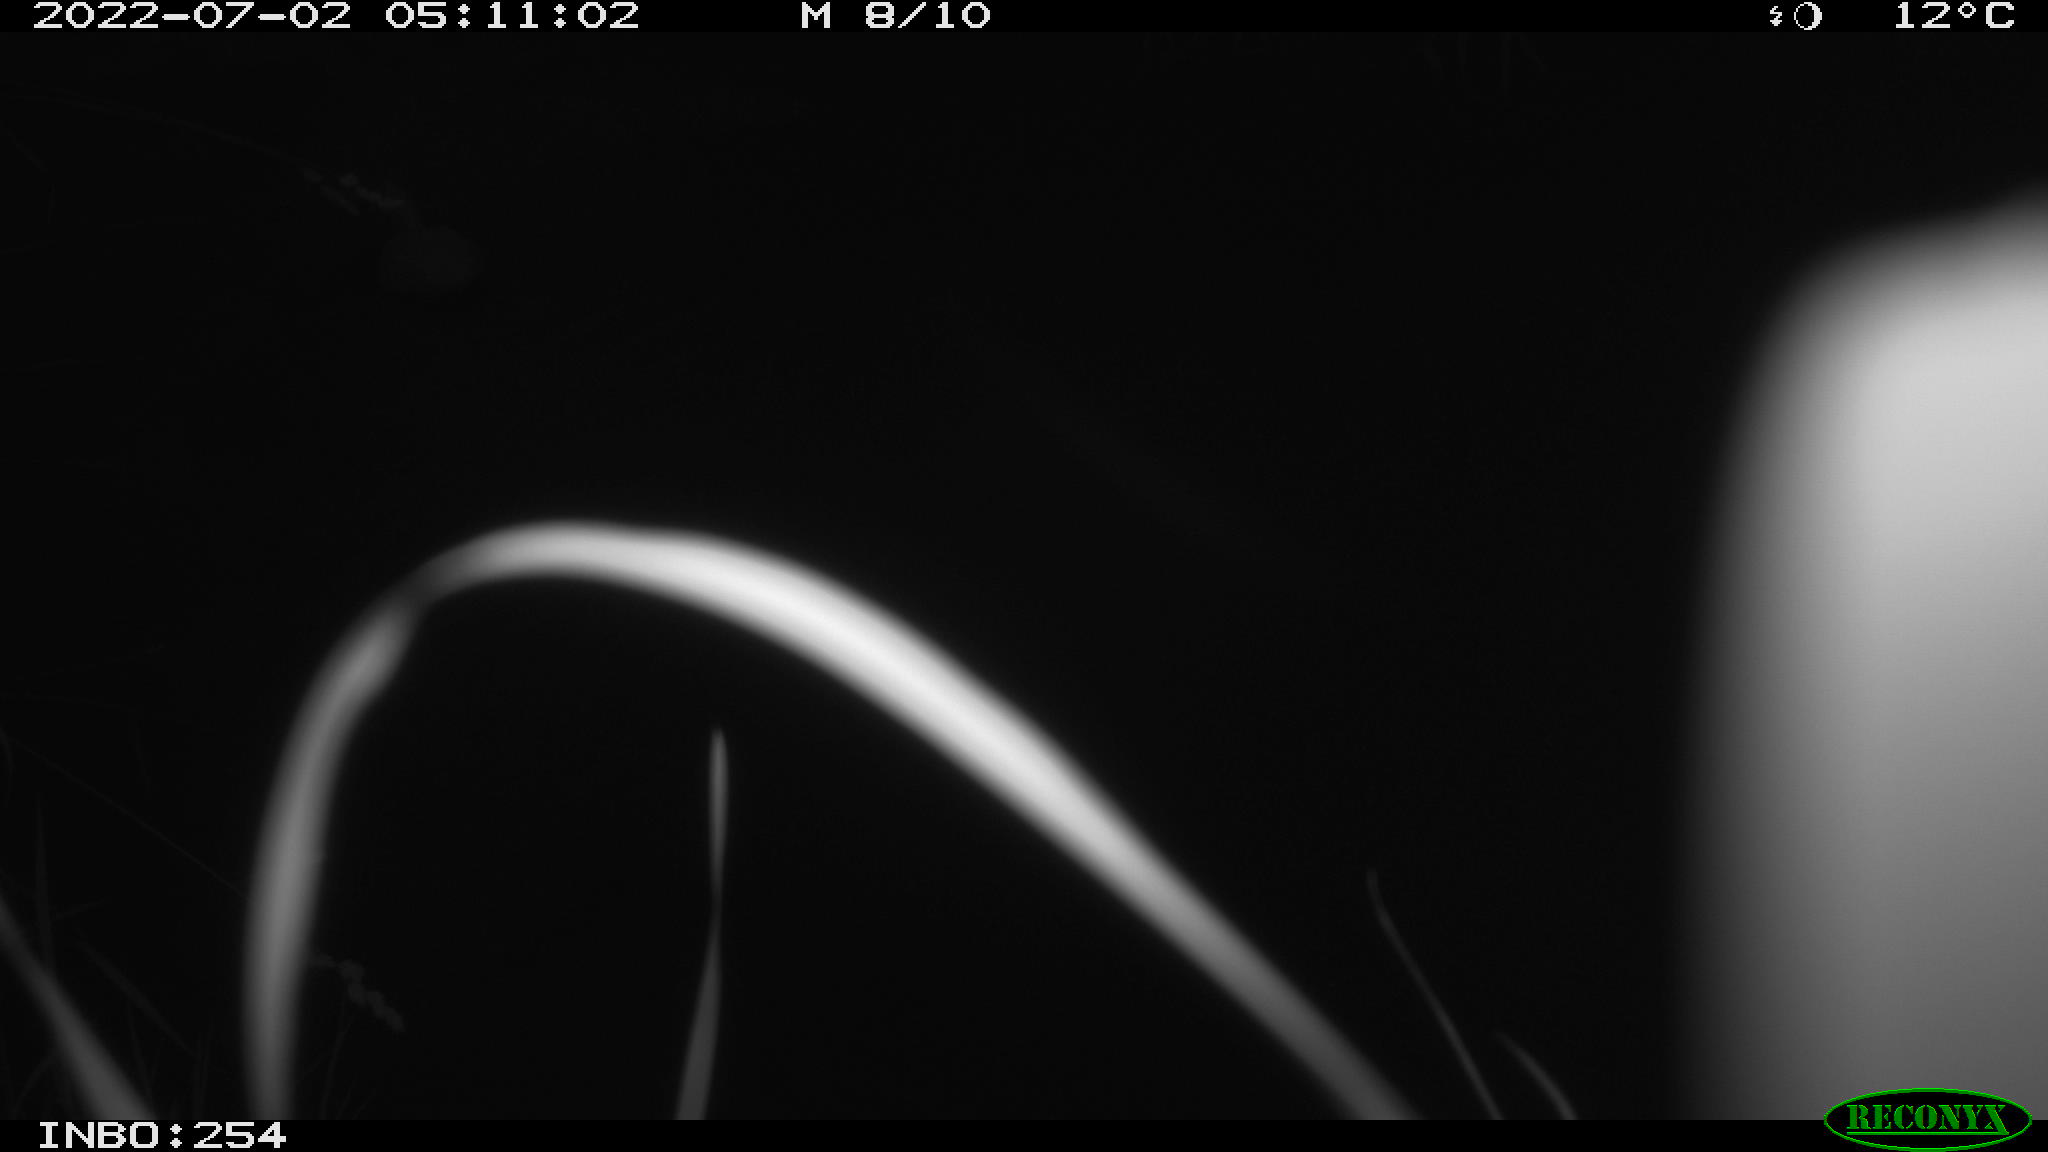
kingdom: Animalia
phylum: Chordata
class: Aves
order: Anseriformes
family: Anatidae
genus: Anas
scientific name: Anas platyrhynchos
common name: Mallard
